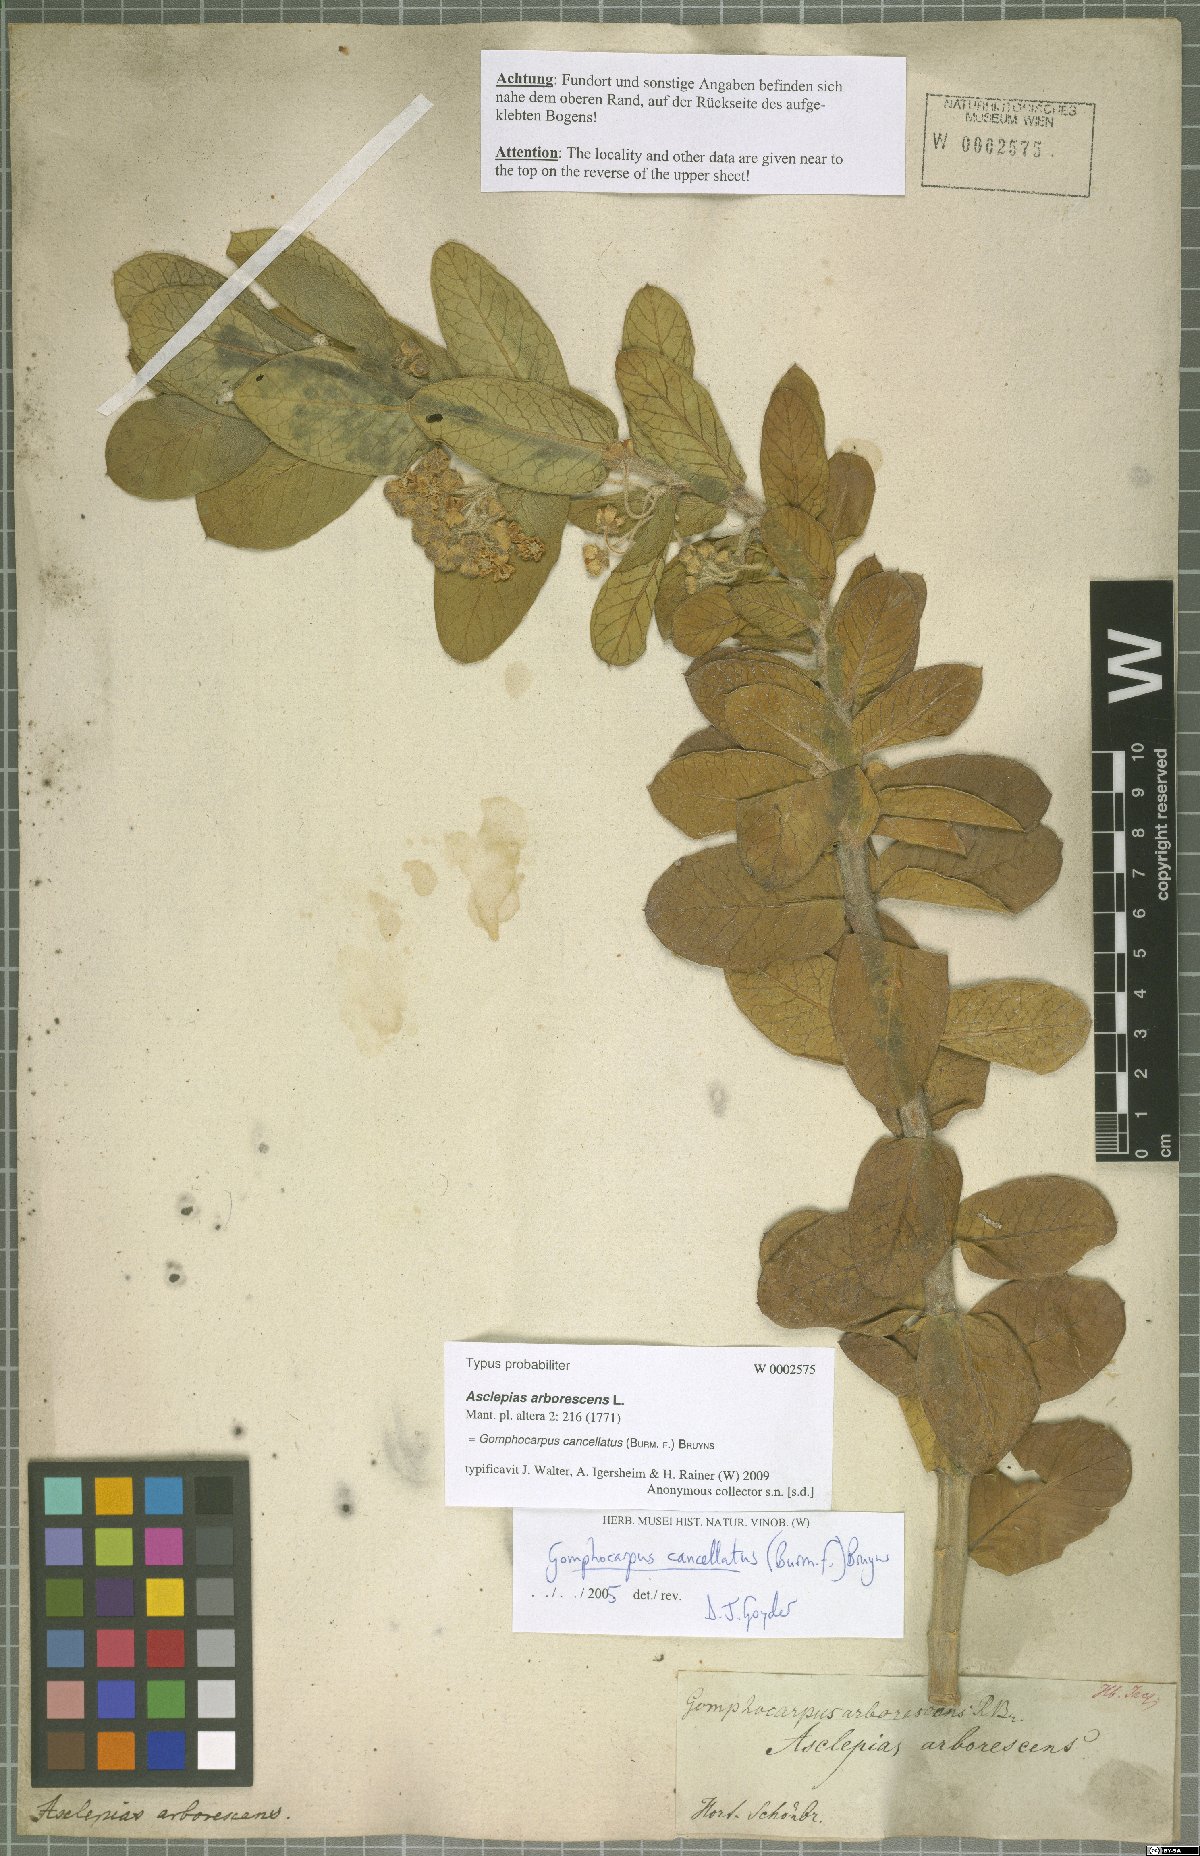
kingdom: Plantae
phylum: Tracheophyta
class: Magnoliopsida
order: Gentianales
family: Apocynaceae
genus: Gomphocarpus
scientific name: Gomphocarpus cancellatus
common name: Wild cotton
